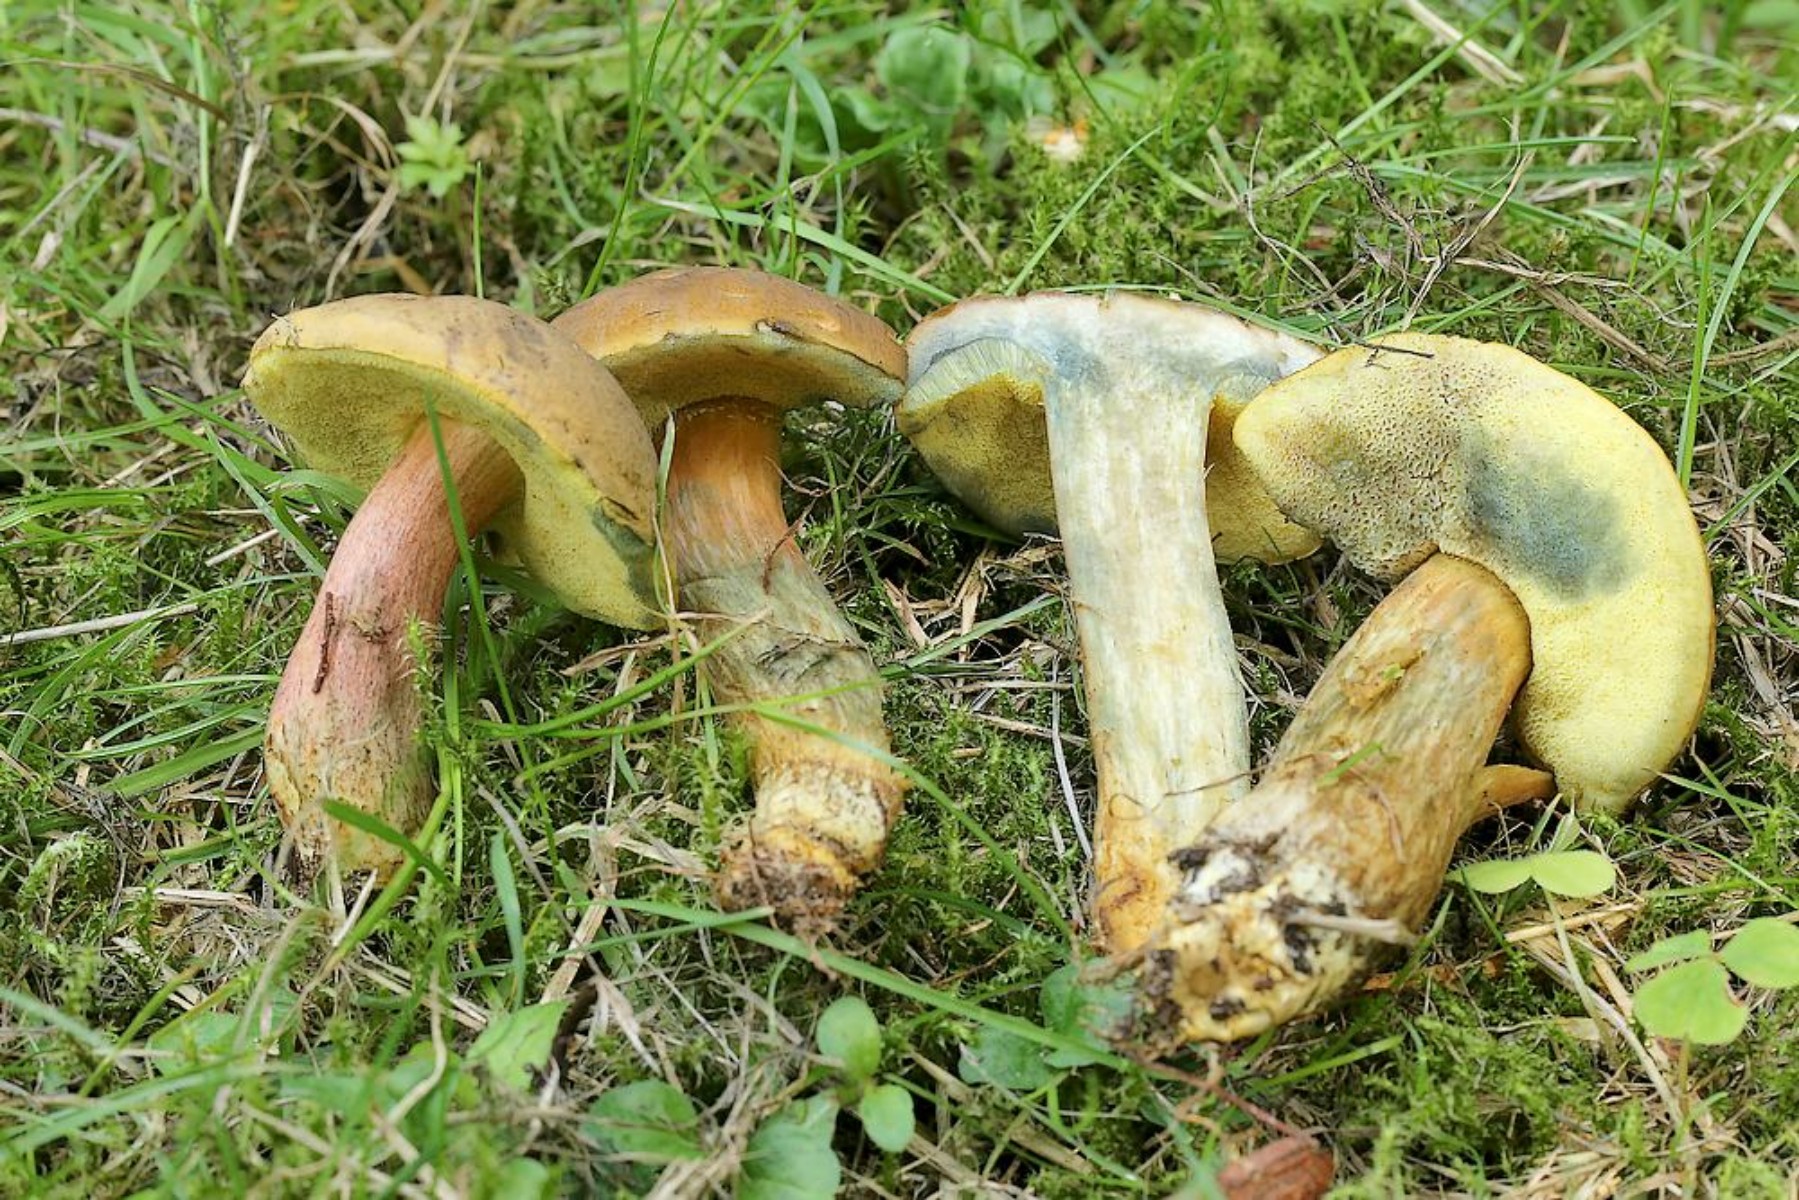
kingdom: Fungi
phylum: Basidiomycota
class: Agaricomycetes
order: Boletales
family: Boletaceae
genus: Hortiboletus
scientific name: Hortiboletus bubalinus
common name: aurora-rørhat
